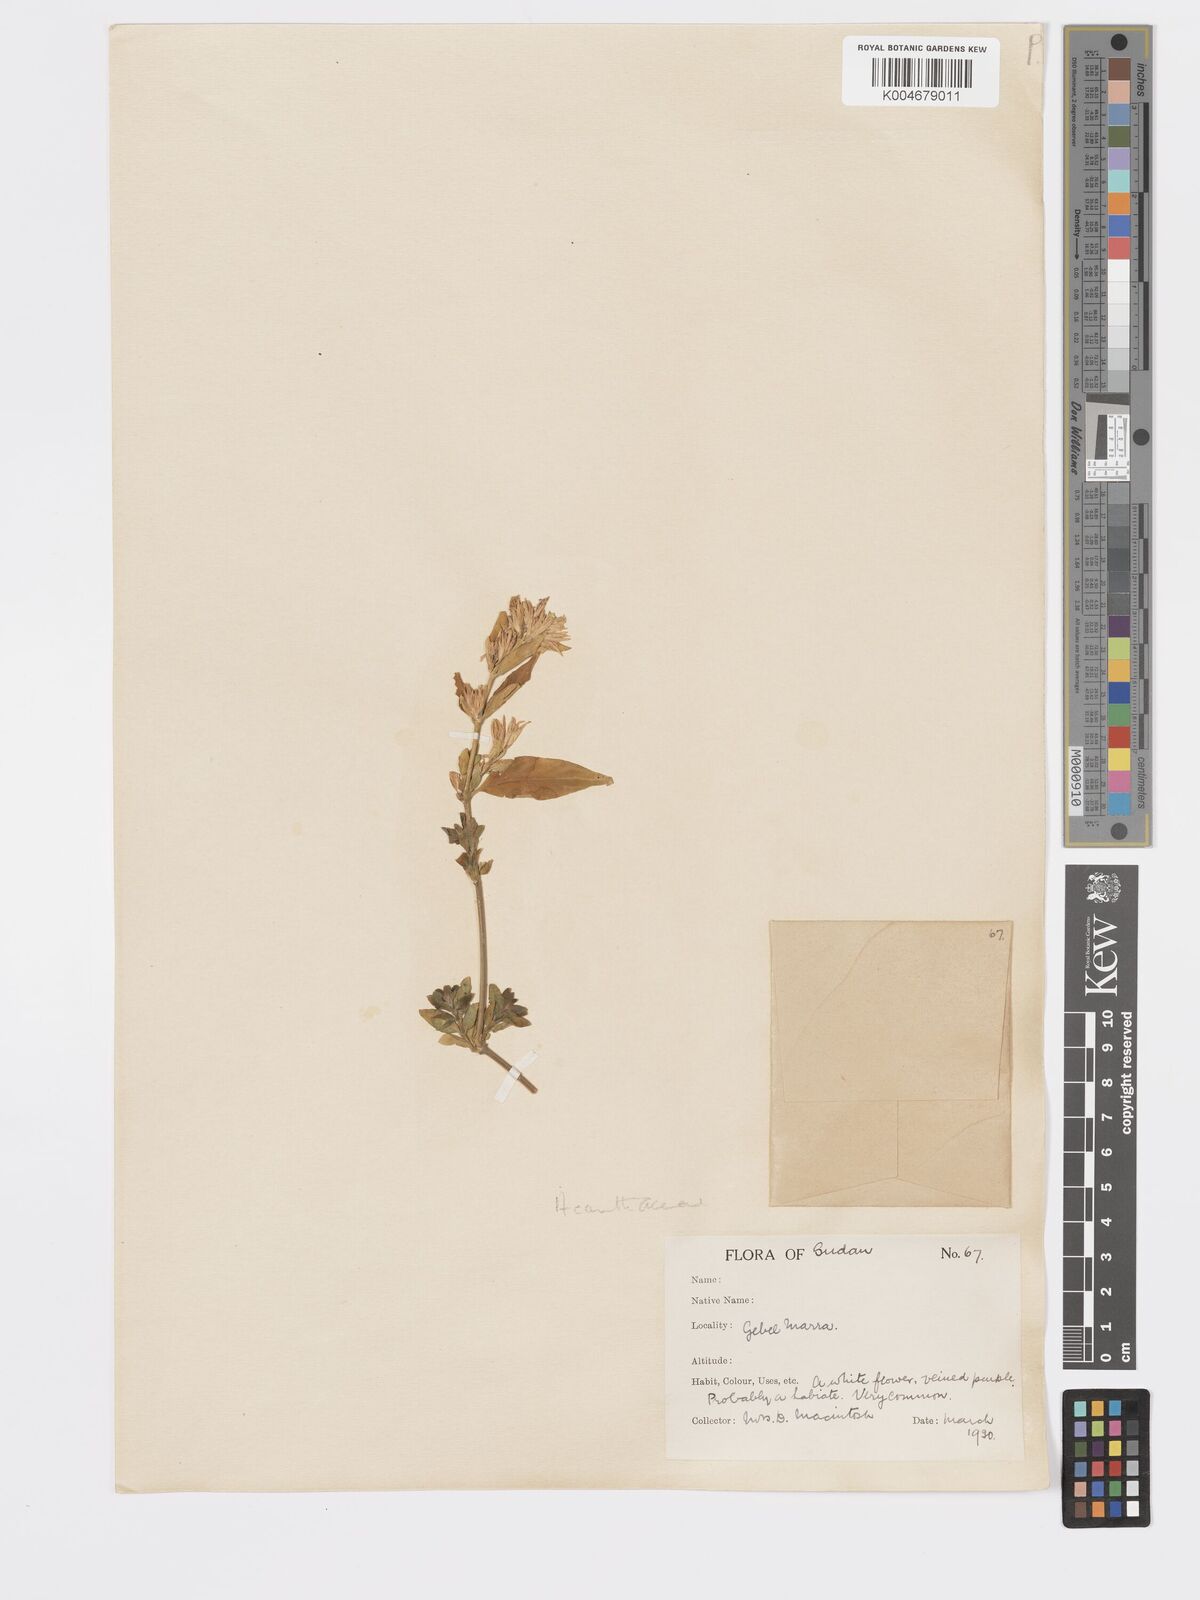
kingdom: Plantae
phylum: Tracheophyta
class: Magnoliopsida
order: Lamiales
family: Acanthaceae
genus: Hypoestes
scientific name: Hypoestes forskaolii
